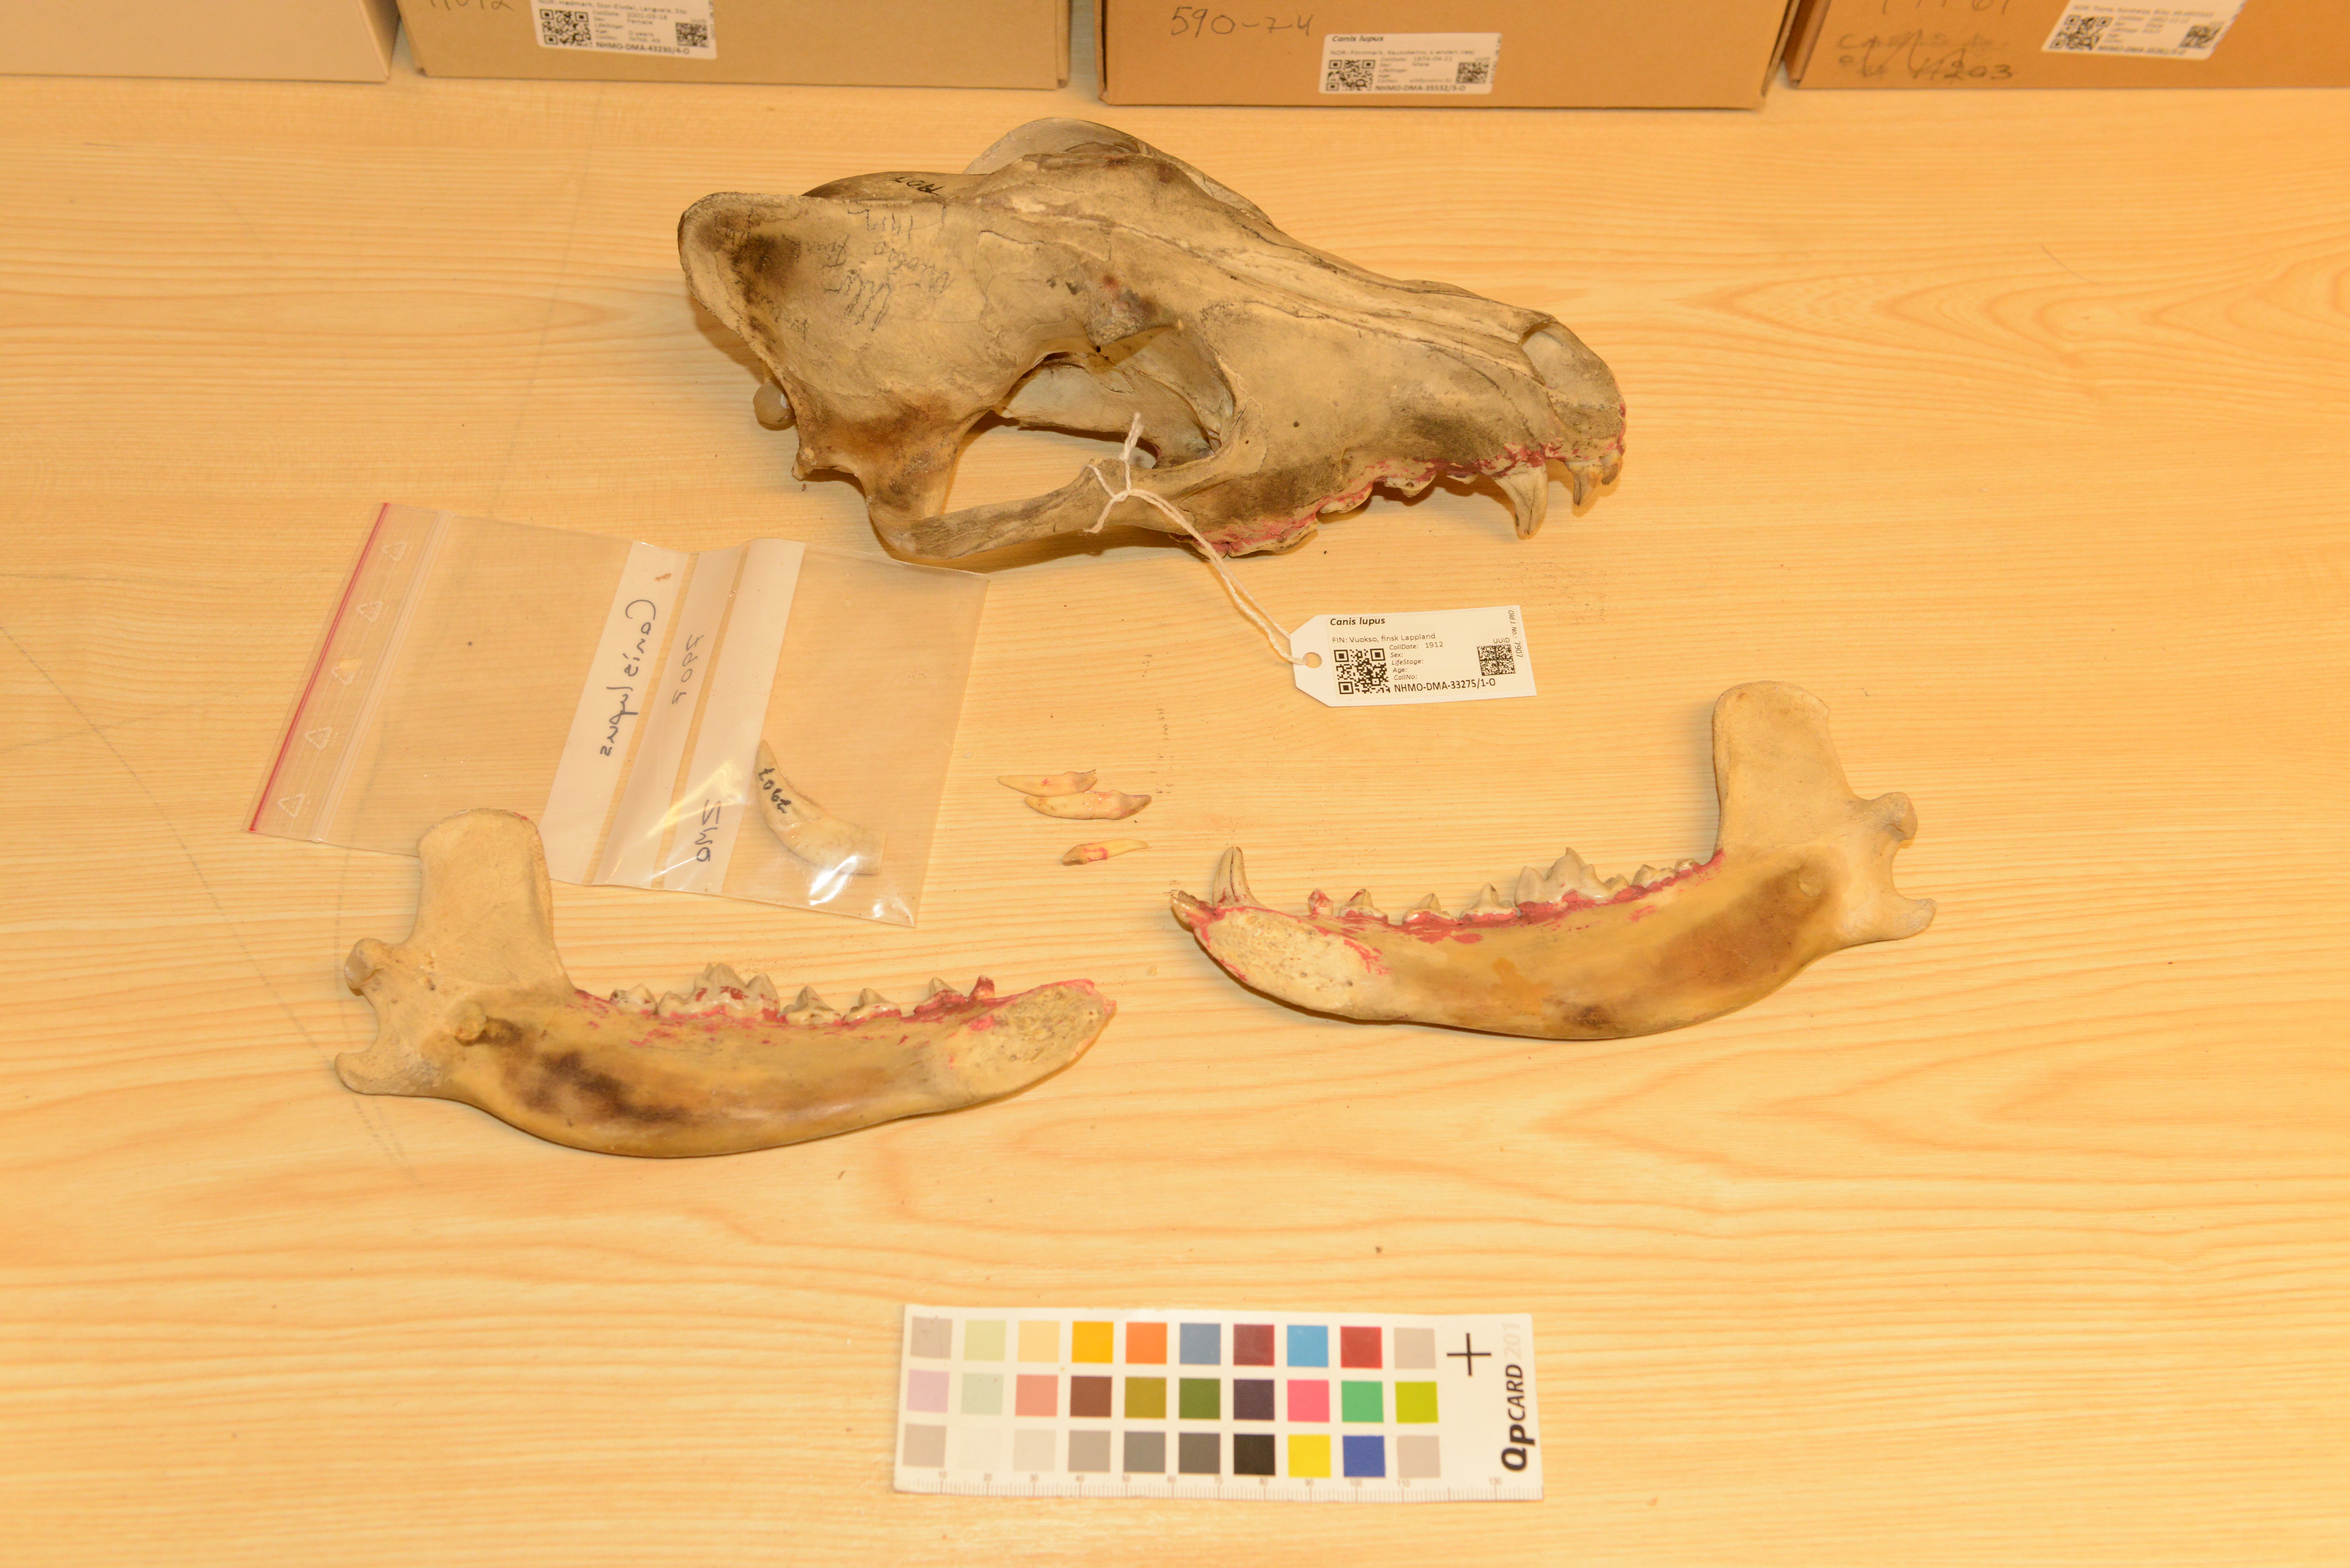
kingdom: Animalia
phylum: Chordata
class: Mammalia
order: Carnivora
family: Canidae
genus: Canis
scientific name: Canis lupus
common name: Gray wolf
